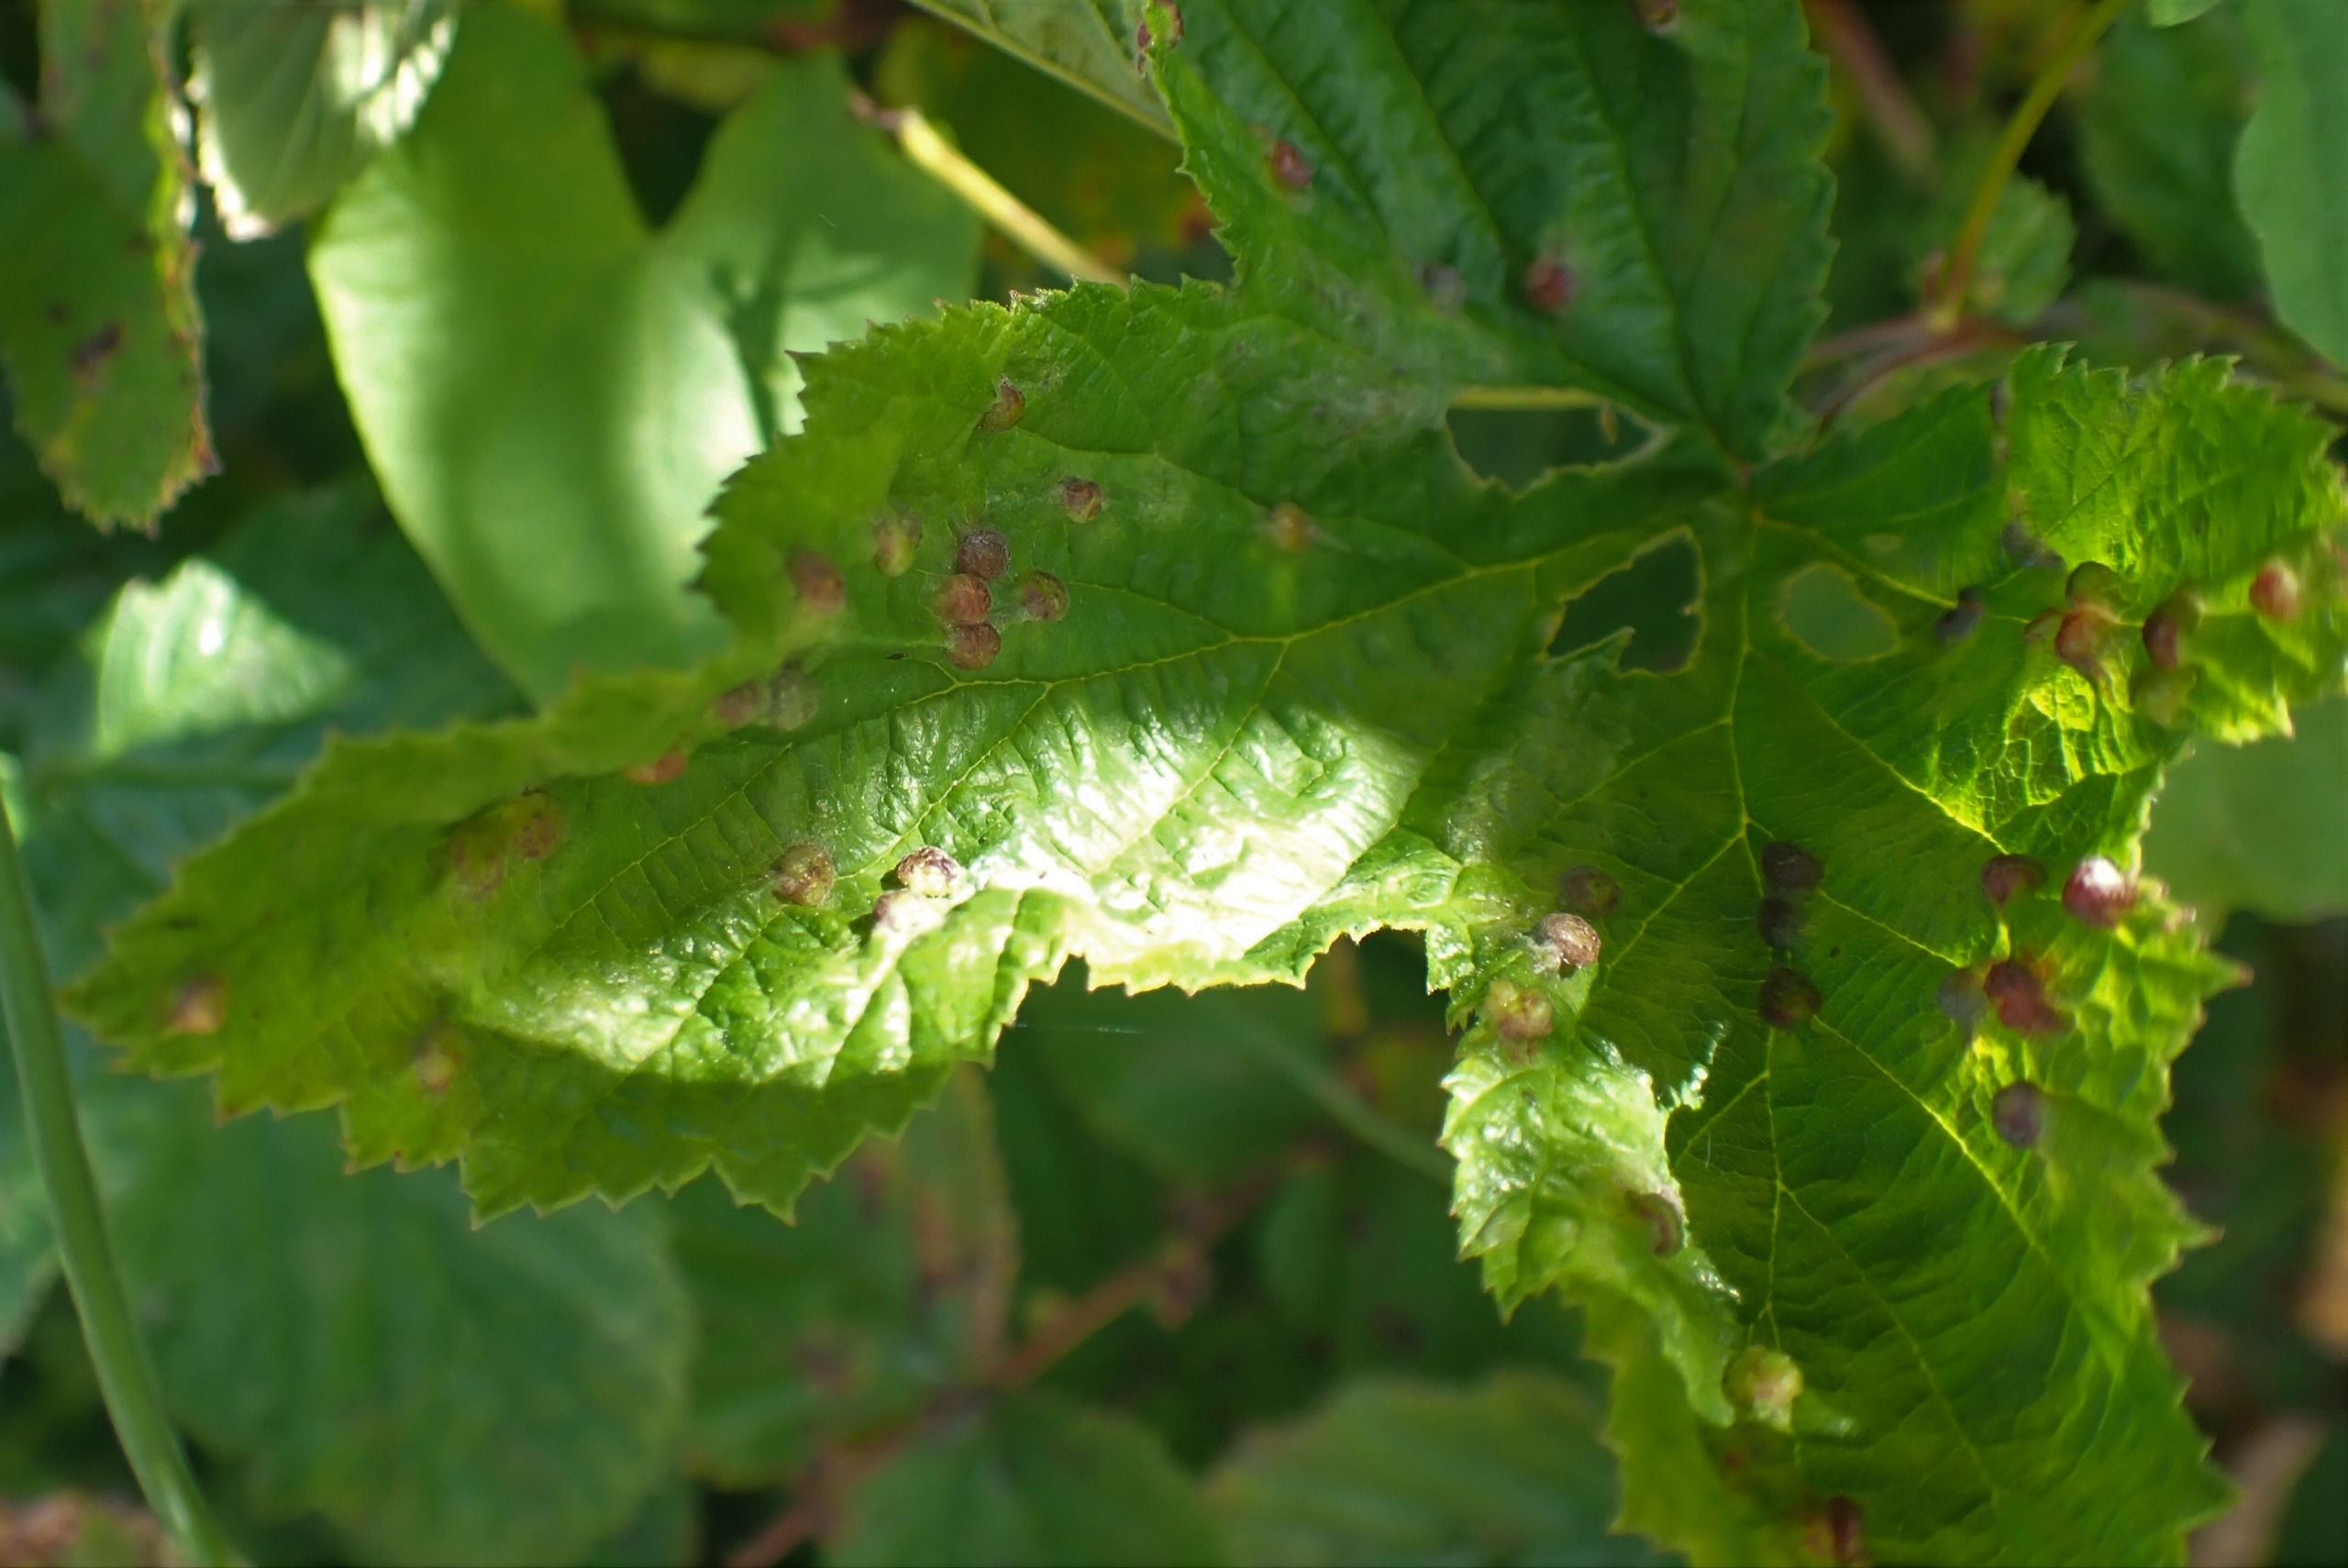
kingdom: Animalia
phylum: Arthropoda
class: Insecta
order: Diptera
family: Cecidomyiidae
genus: Dasineura
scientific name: Dasineura ulmaria
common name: Mjødurtgalmyg
